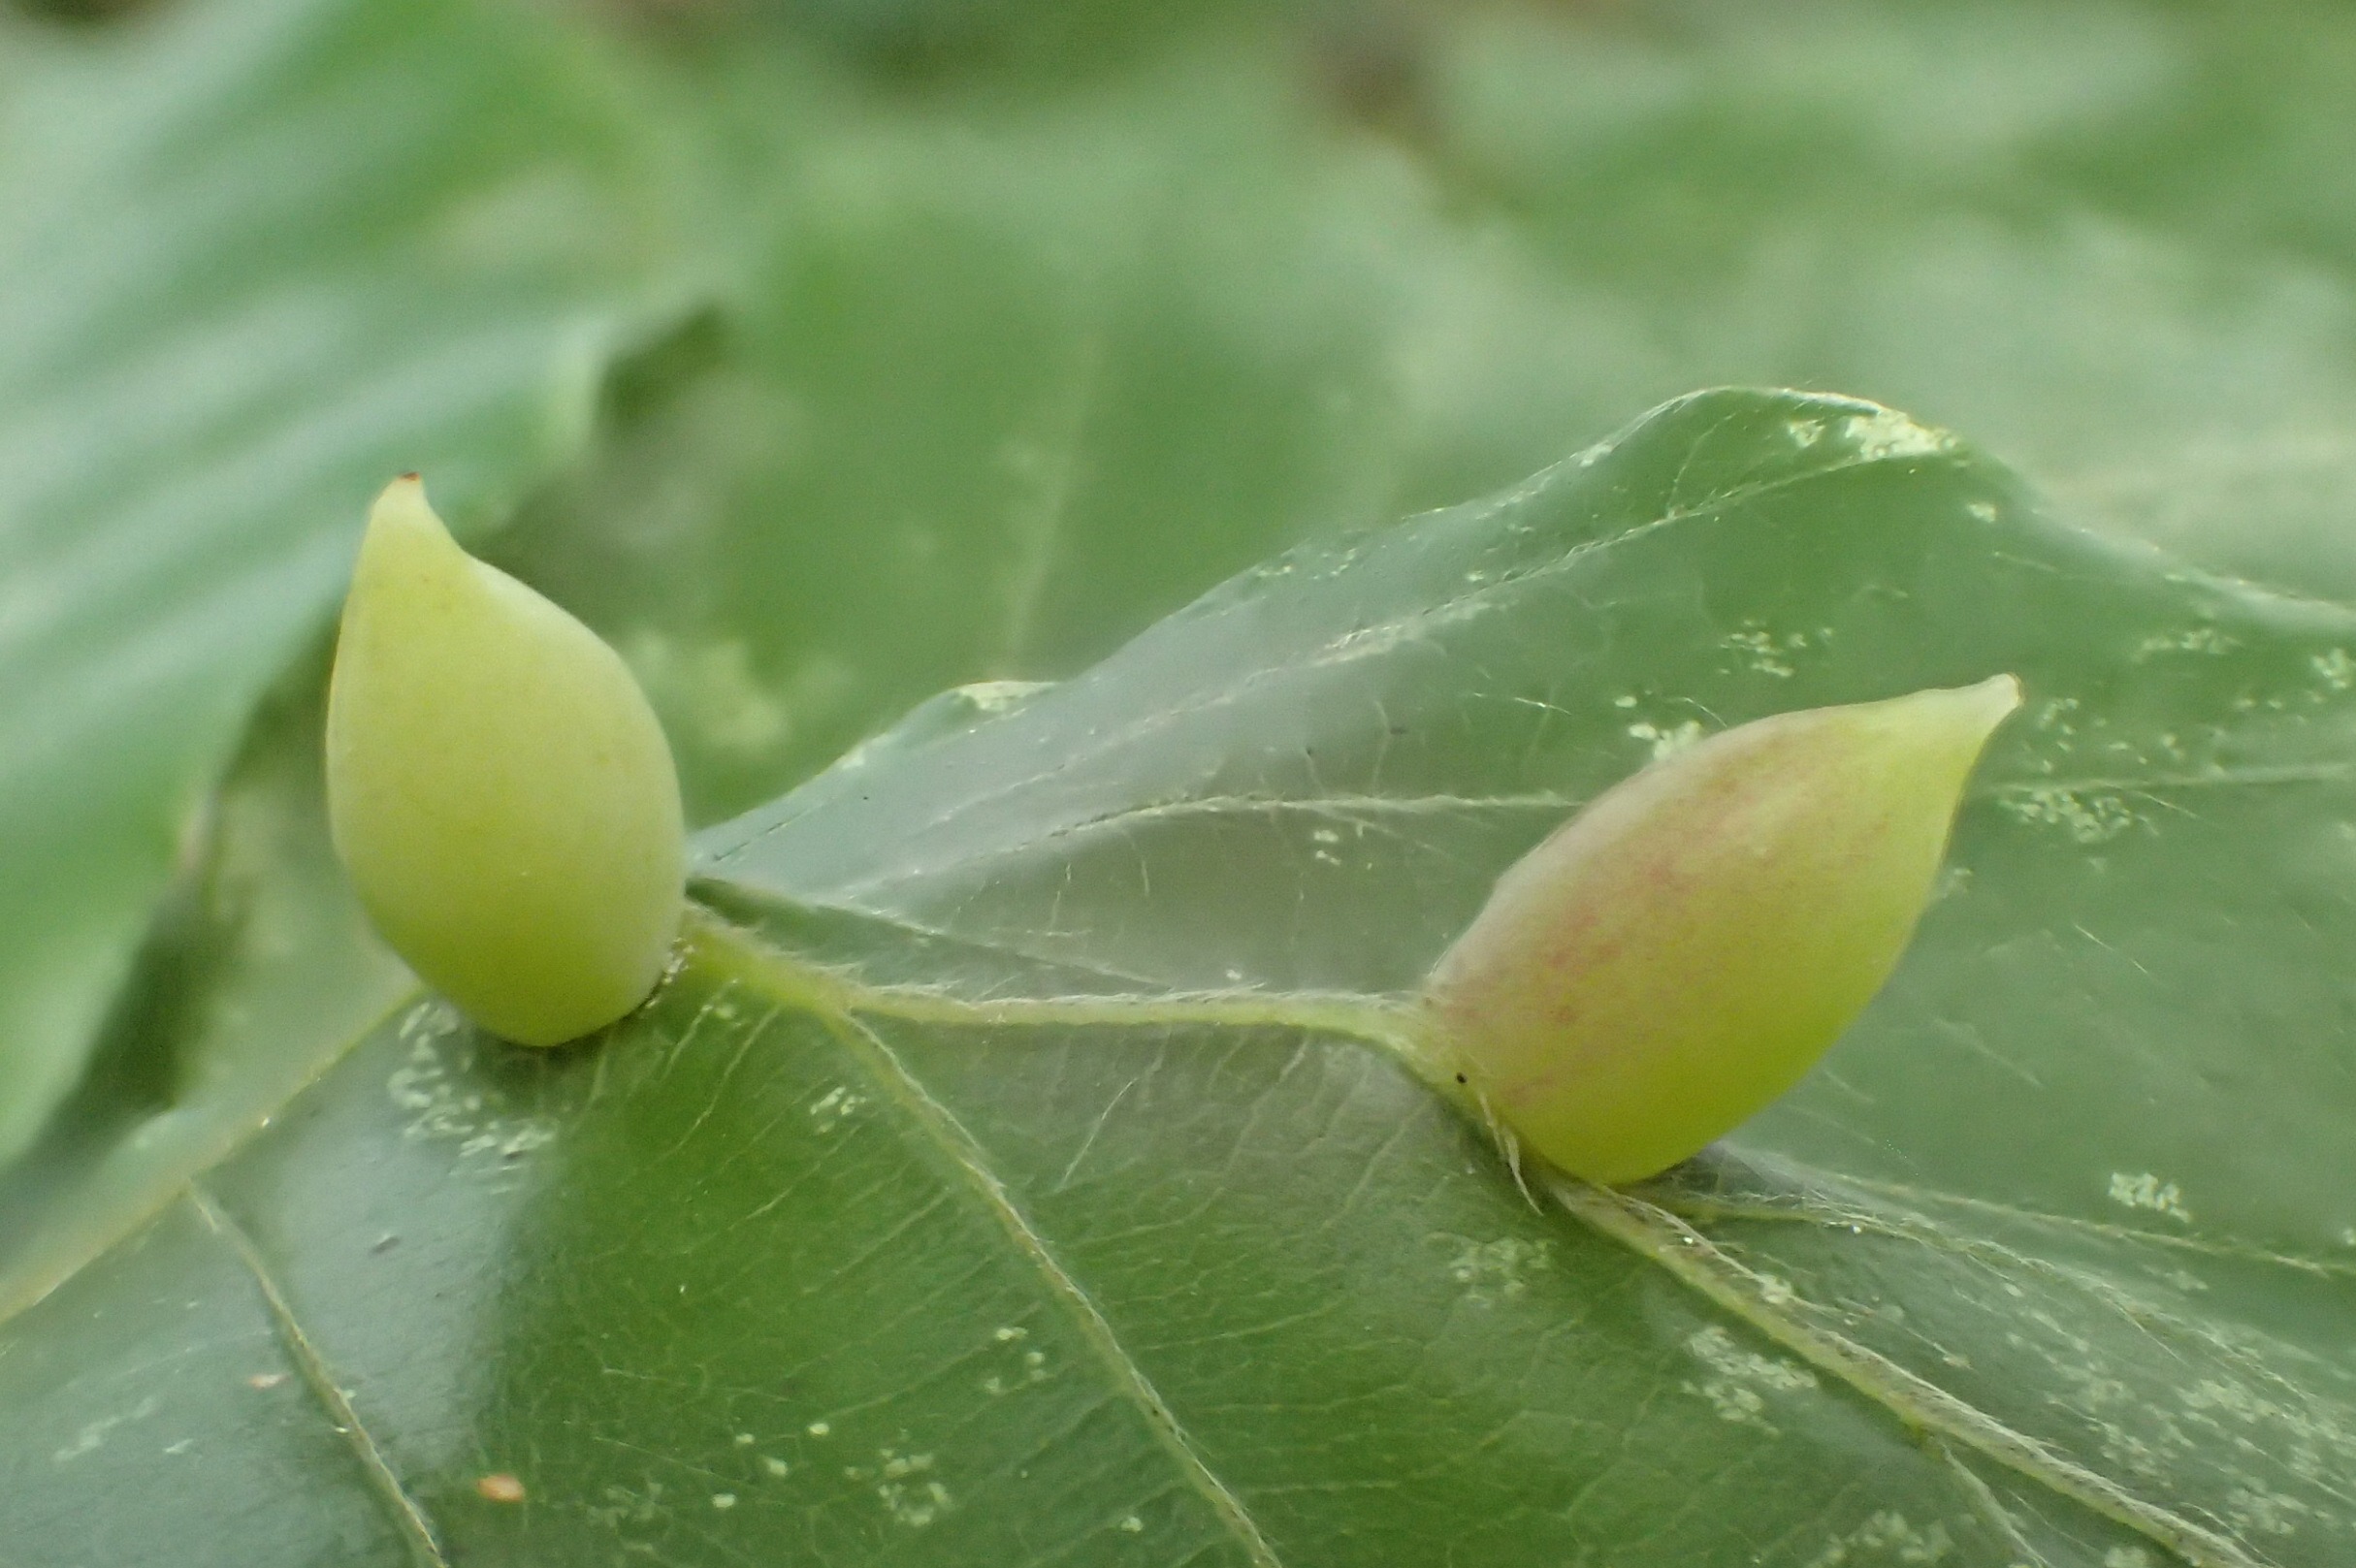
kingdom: Animalia
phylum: Arthropoda
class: Insecta
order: Diptera
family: Cecidomyiidae
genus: Mikiola
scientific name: Mikiola fagi
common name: Bøgegalmyg
